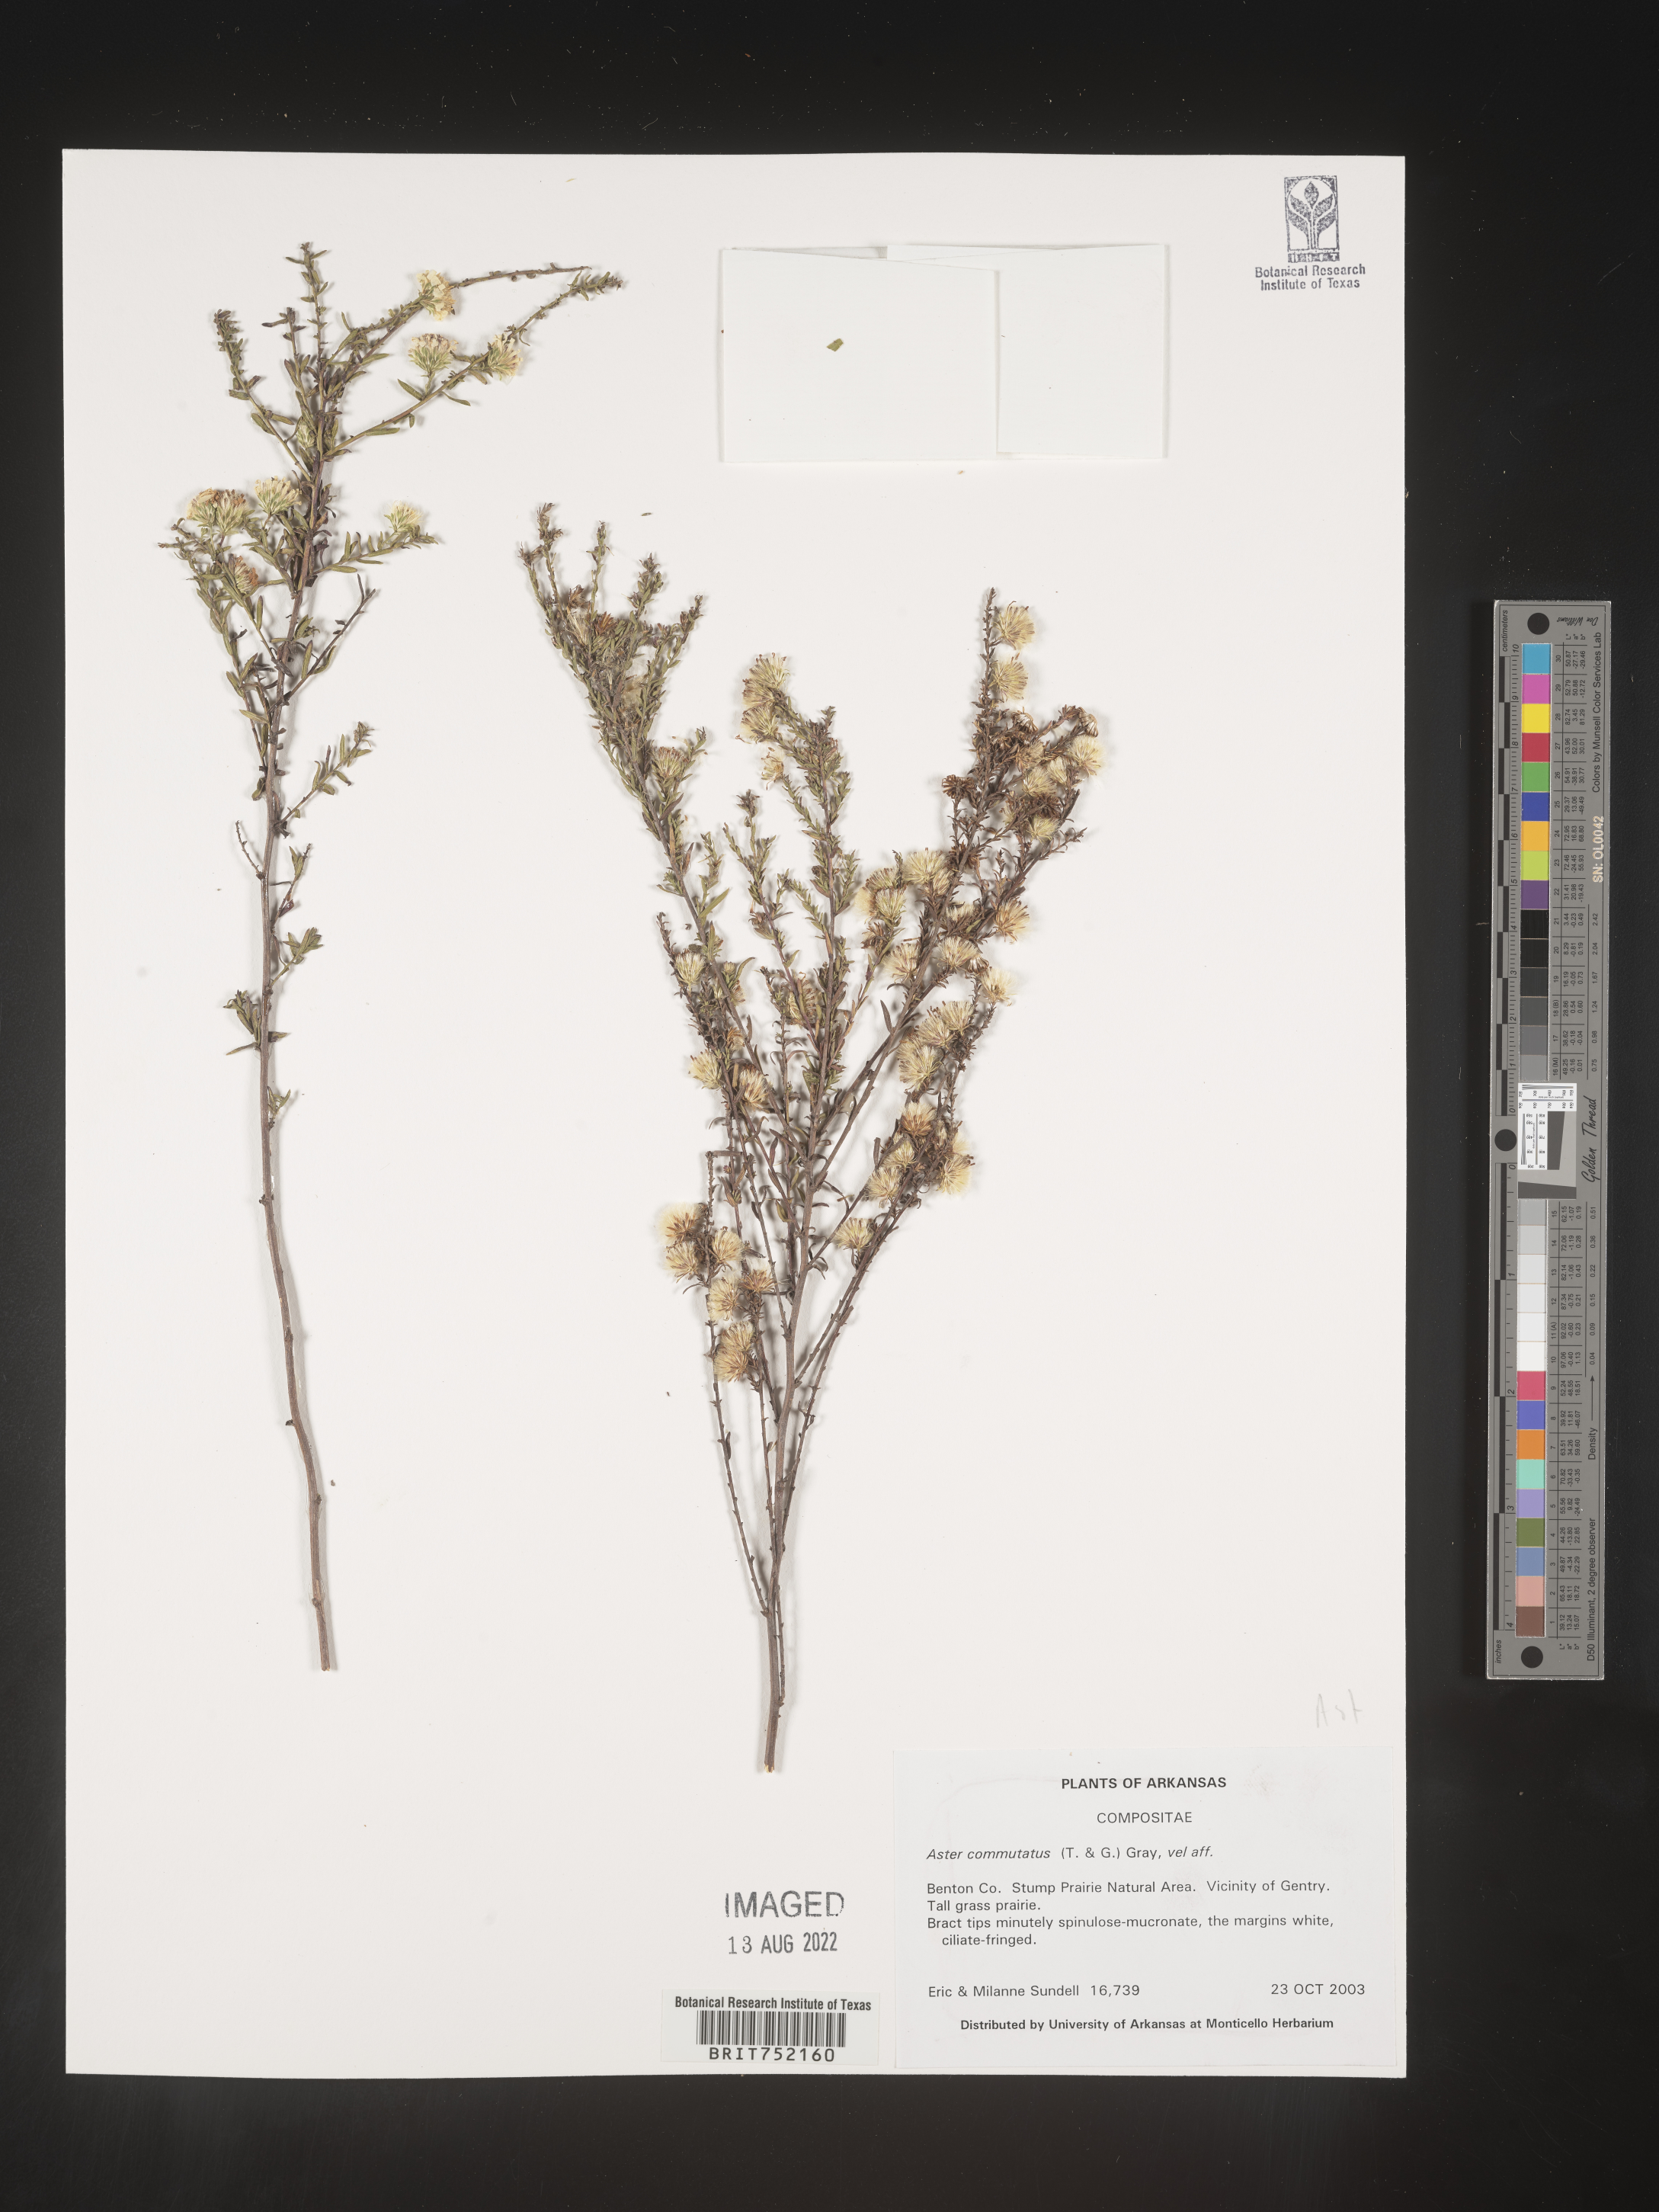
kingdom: Plantae
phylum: Tracheophyta
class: Magnoliopsida
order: Asterales
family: Asteraceae
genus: Symphyotrichum
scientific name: Symphyotrichum ericoides
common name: Heath aster
